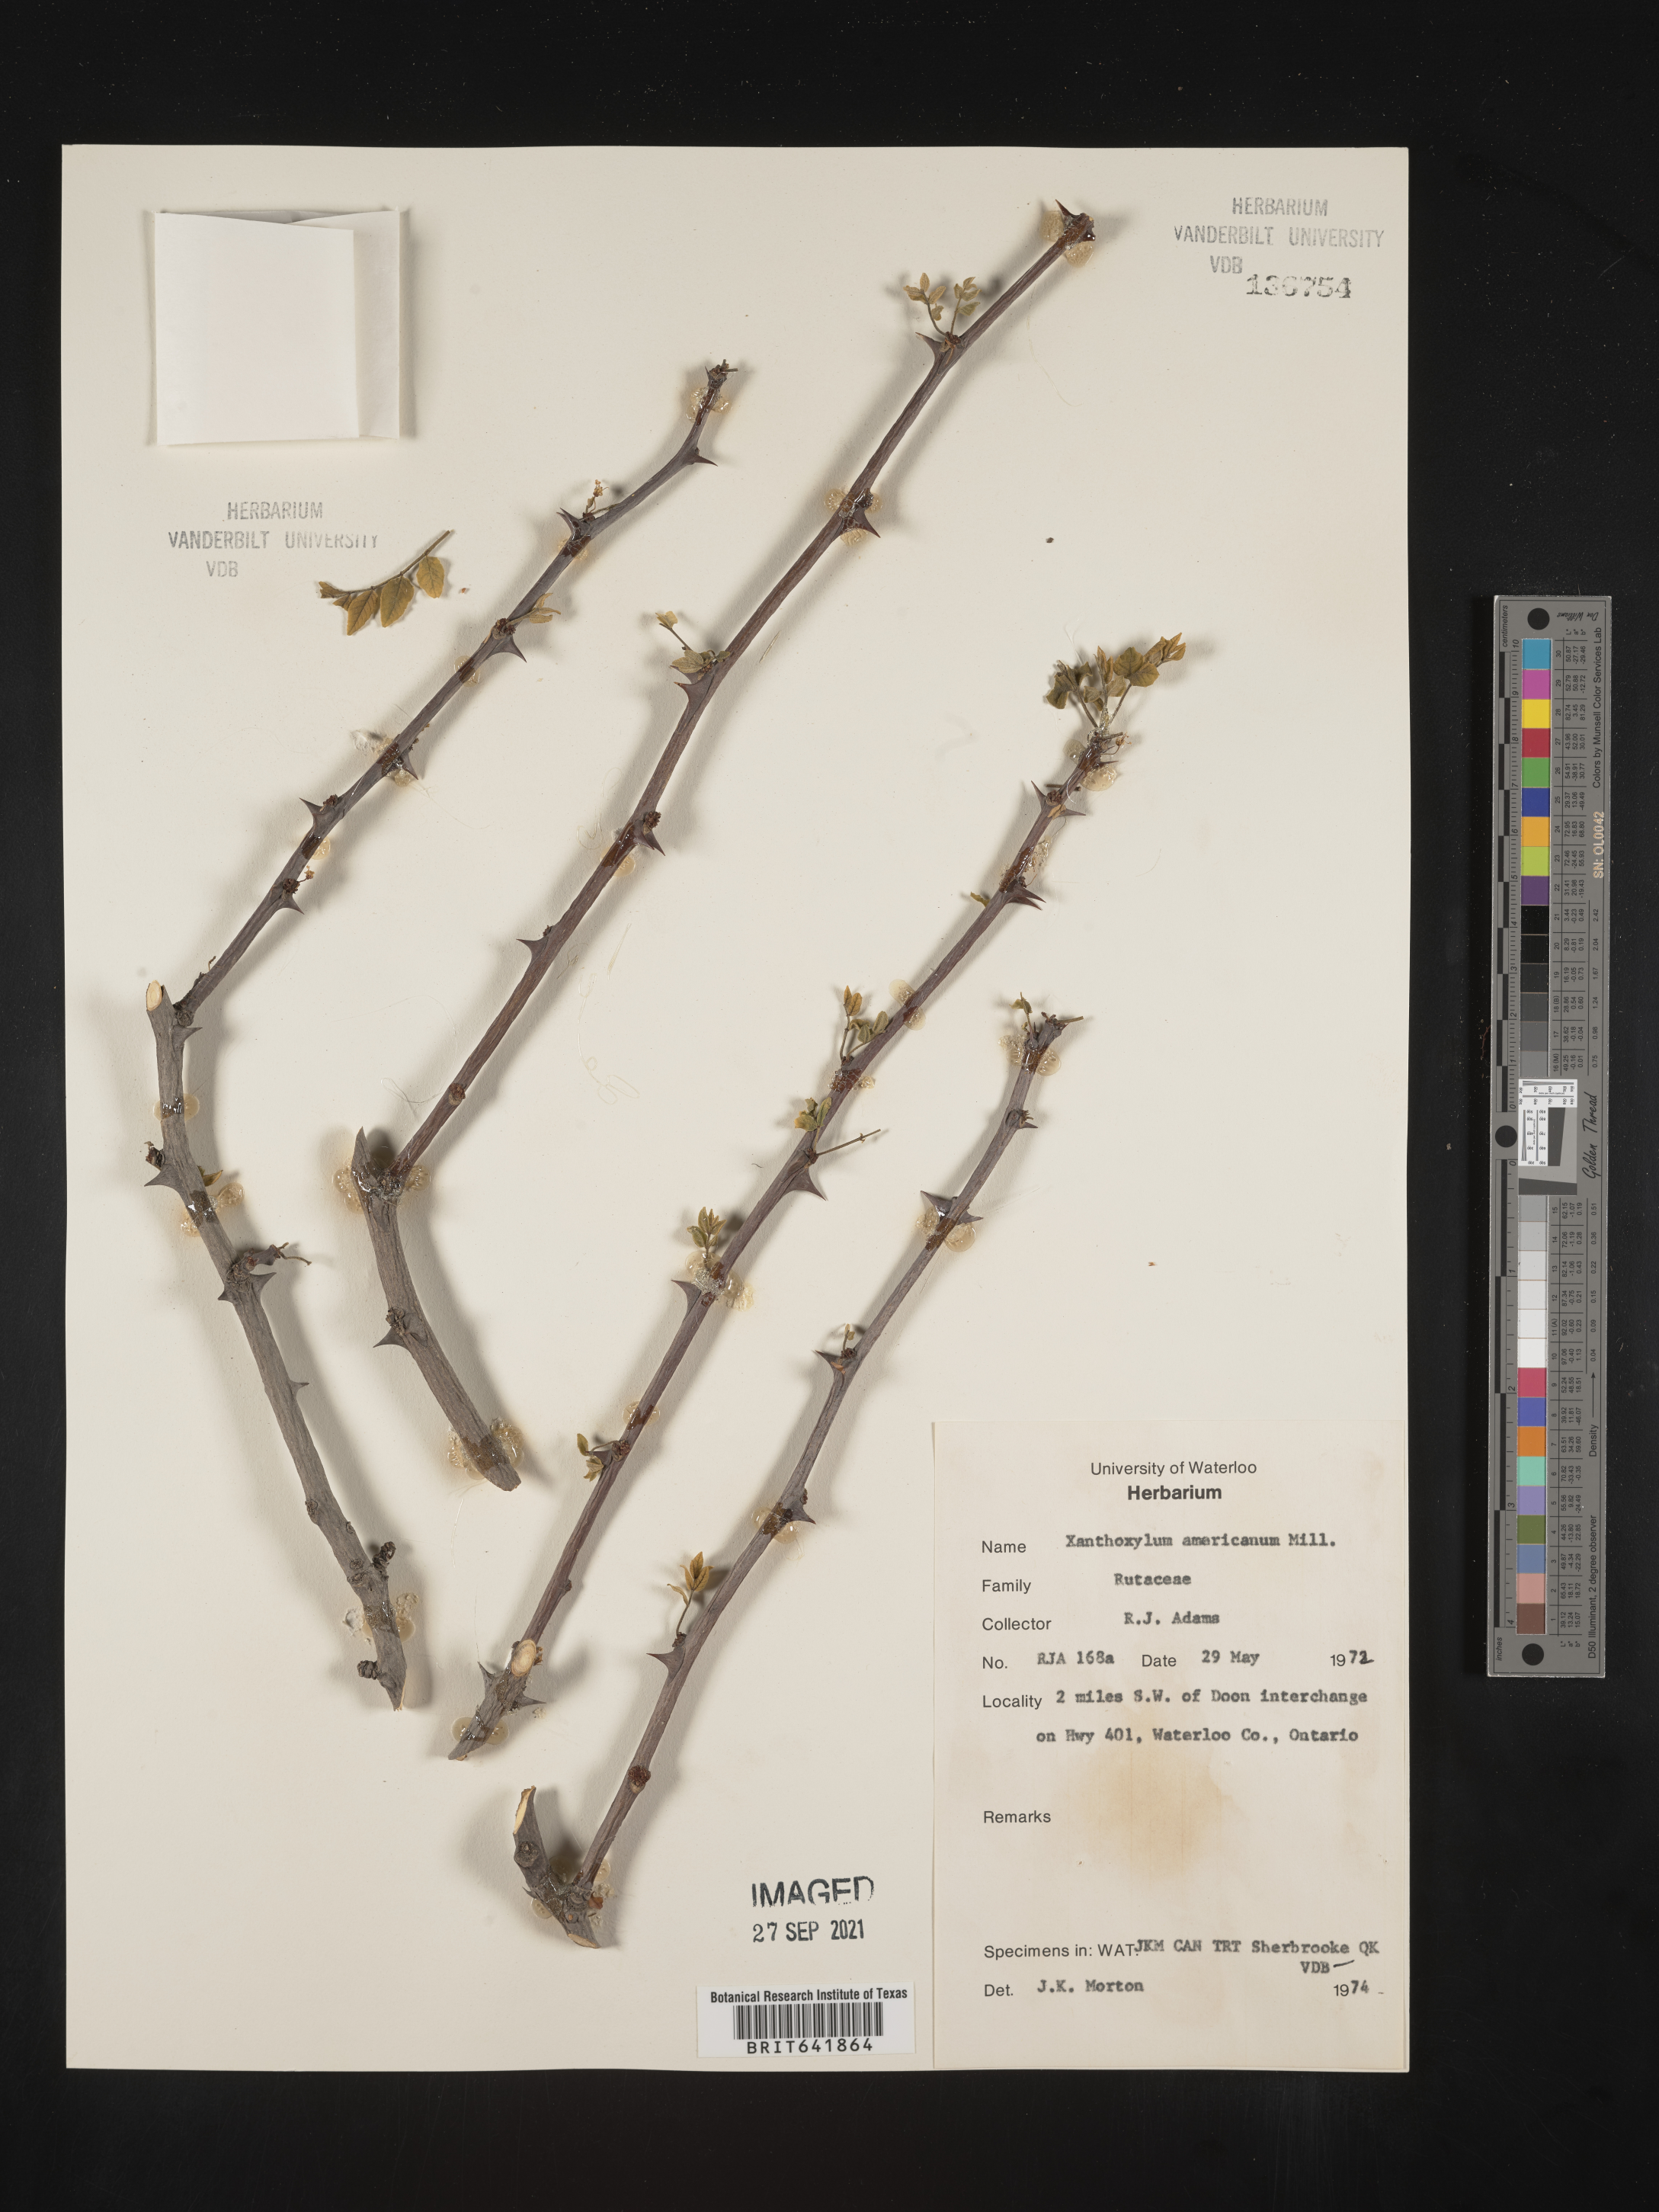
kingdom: Plantae
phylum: Tracheophyta
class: Magnoliopsida
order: Sapindales
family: Rutaceae
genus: Zanthoxylum
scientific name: Zanthoxylum
